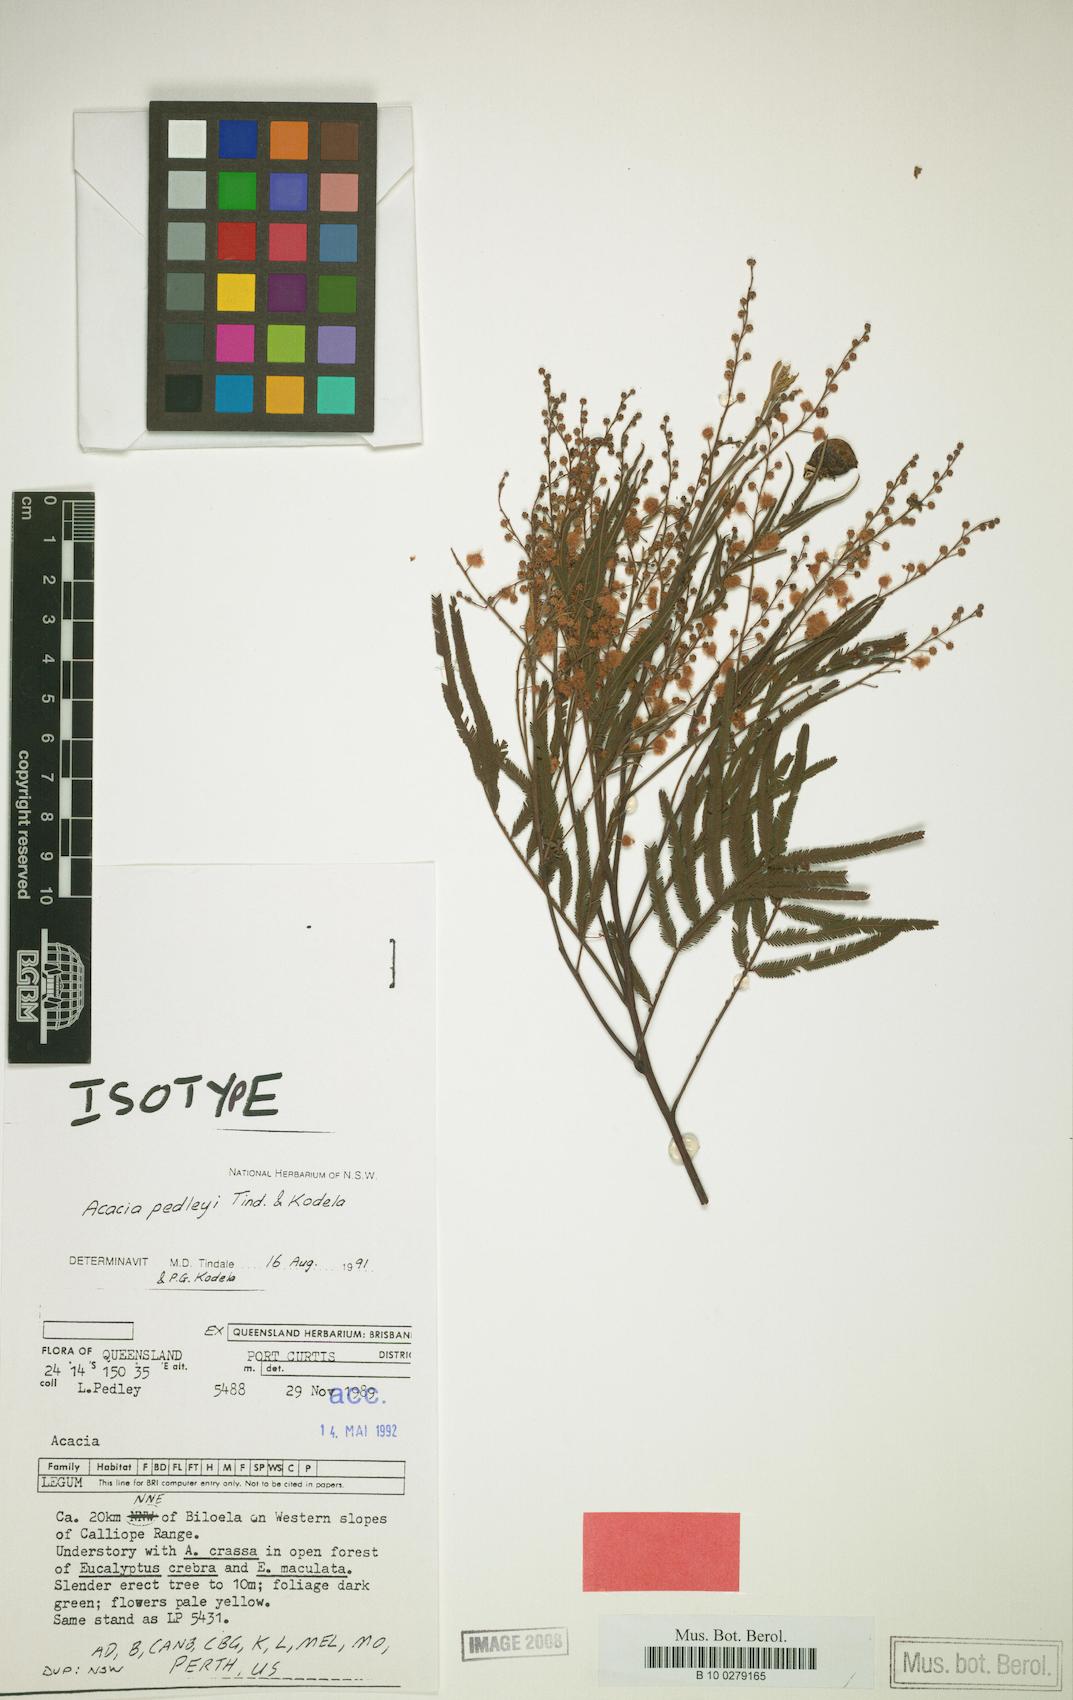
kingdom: Plantae
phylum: Tracheophyta
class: Magnoliopsida
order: Fabales
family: Fabaceae
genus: Acacia
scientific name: Acacia pedleyi
